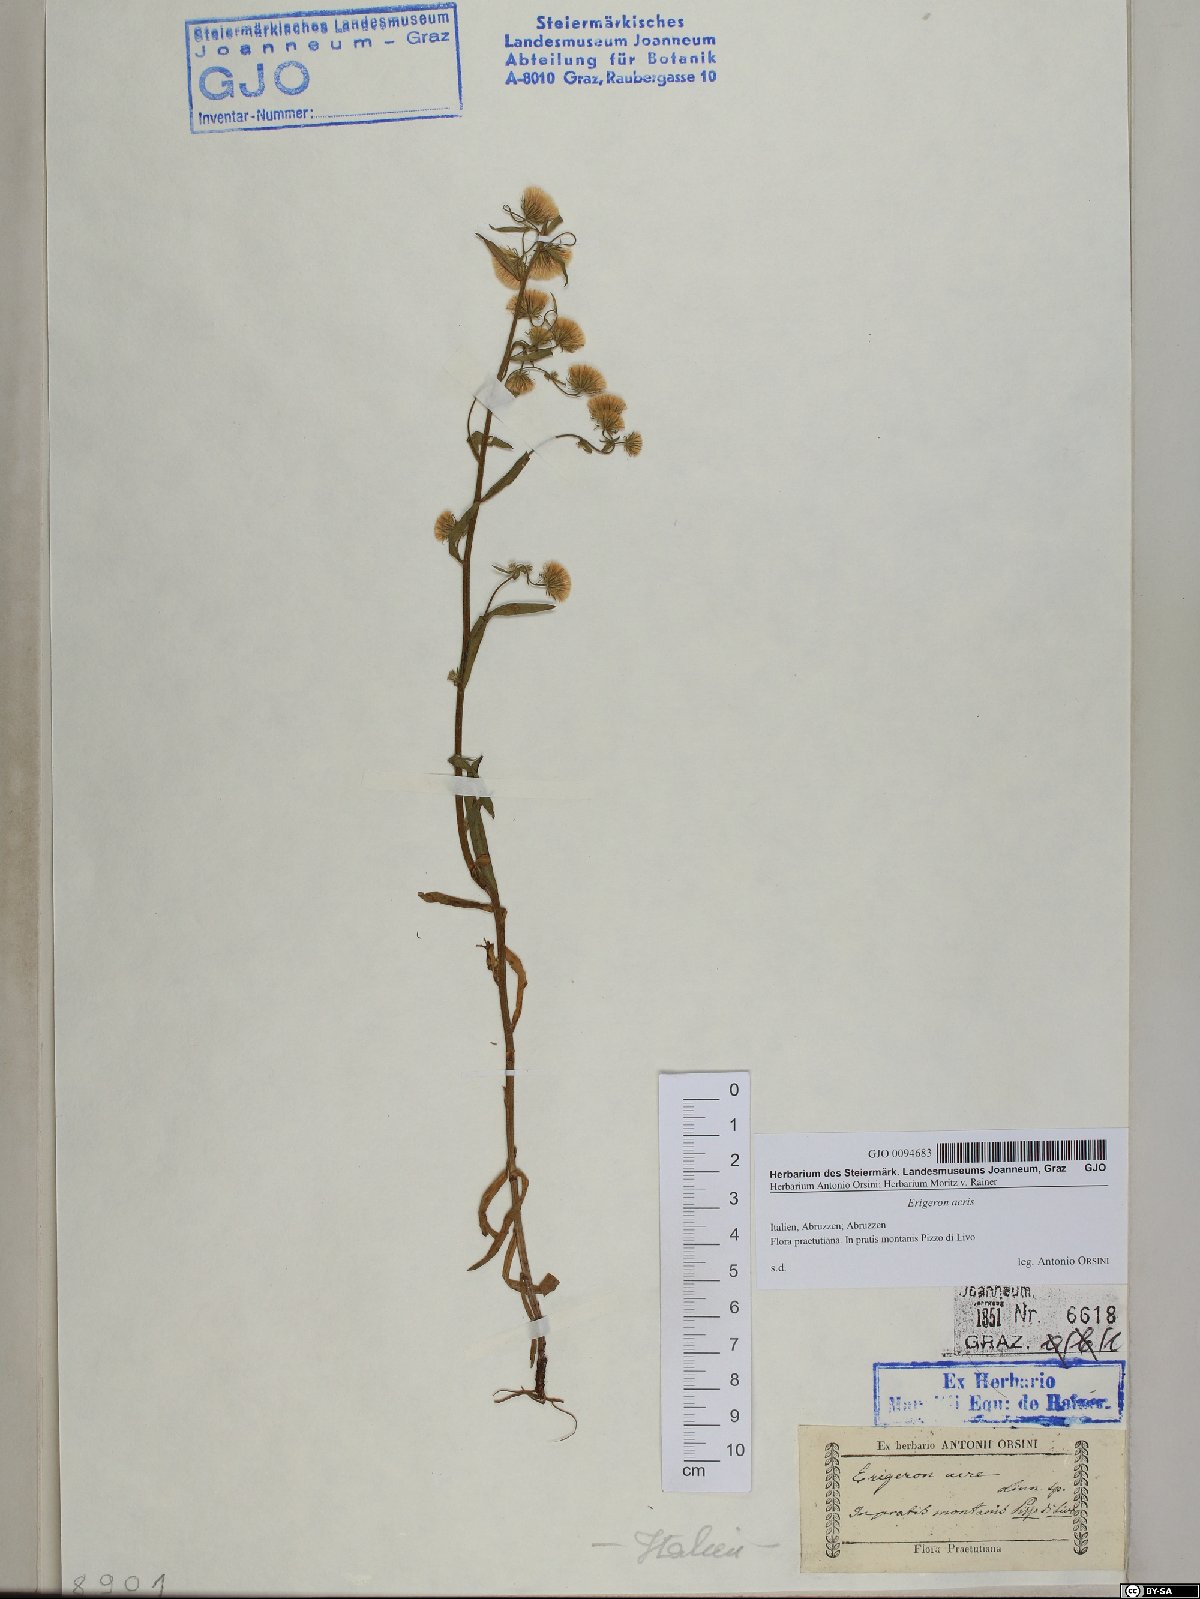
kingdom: Plantae
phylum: Tracheophyta
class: Magnoliopsida
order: Asterales
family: Asteraceae
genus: Erigeron
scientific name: Erigeron acris
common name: Blue fleabane
